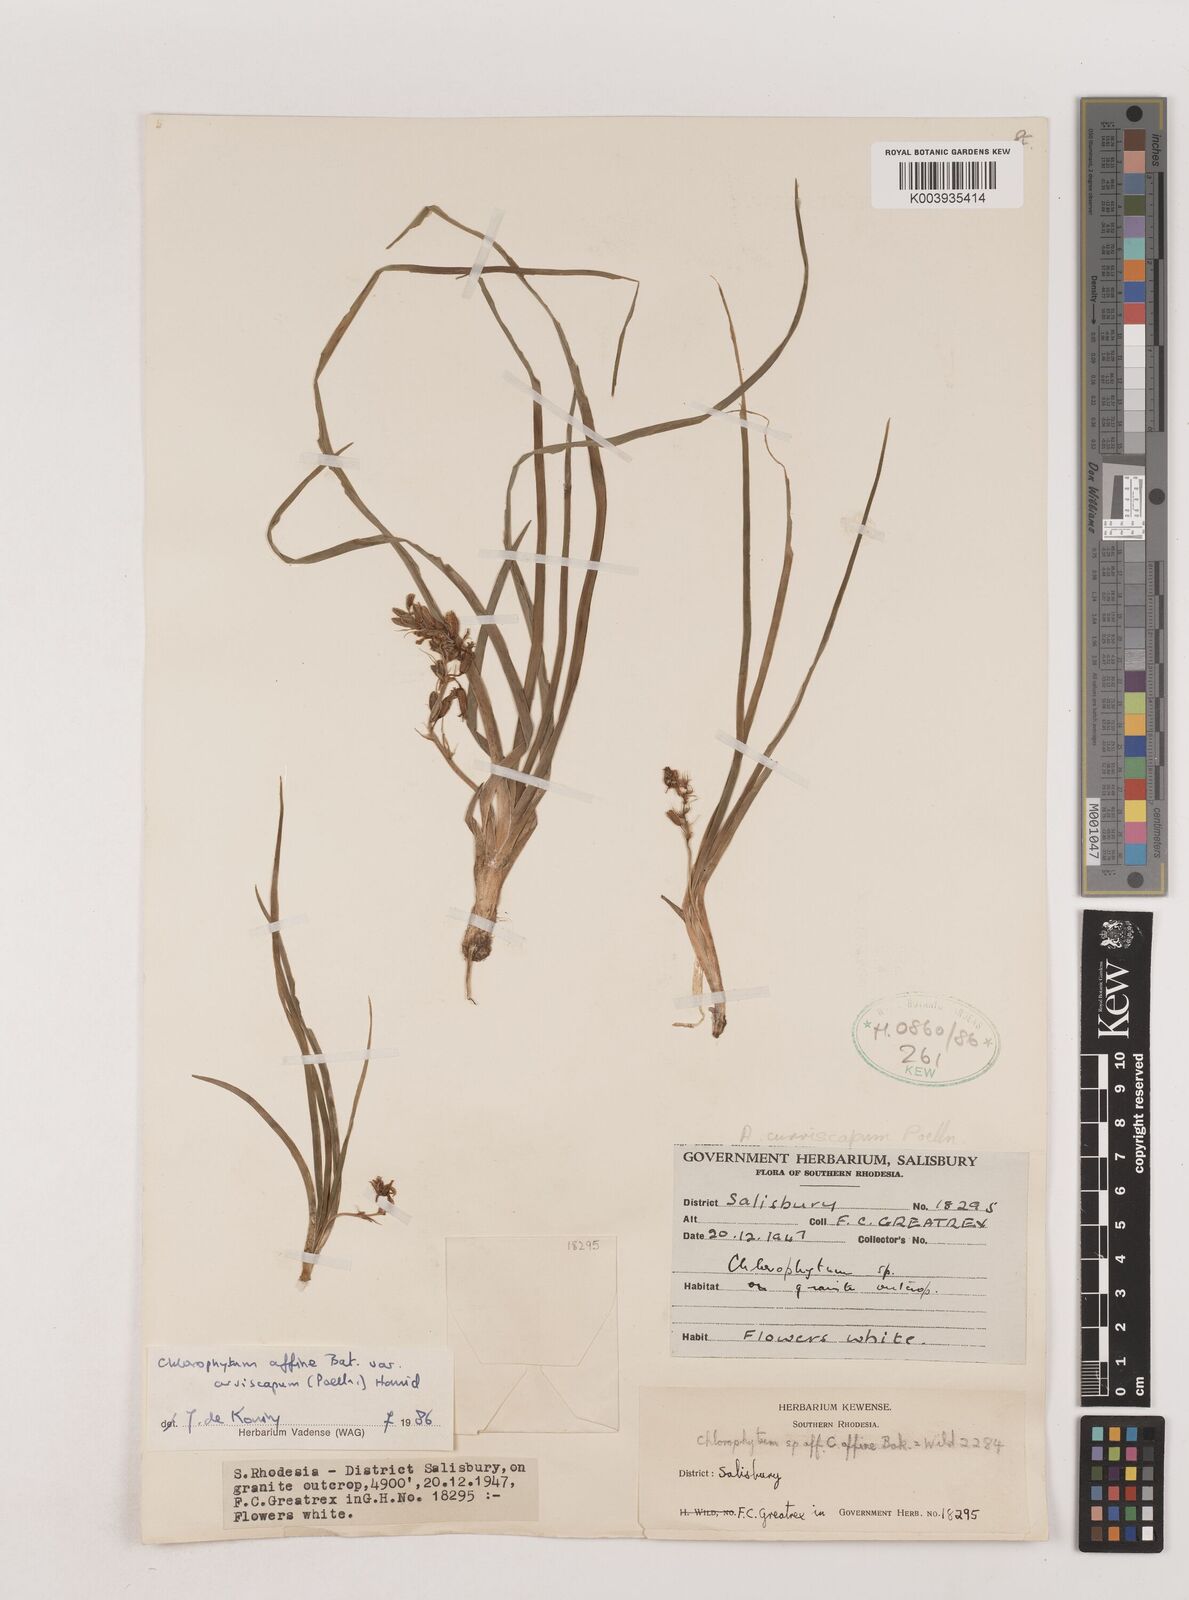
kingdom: Plantae
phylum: Tracheophyta
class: Liliopsida
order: Asparagales
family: Asparagaceae
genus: Chlorophytum
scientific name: Chlorophytum tordense
